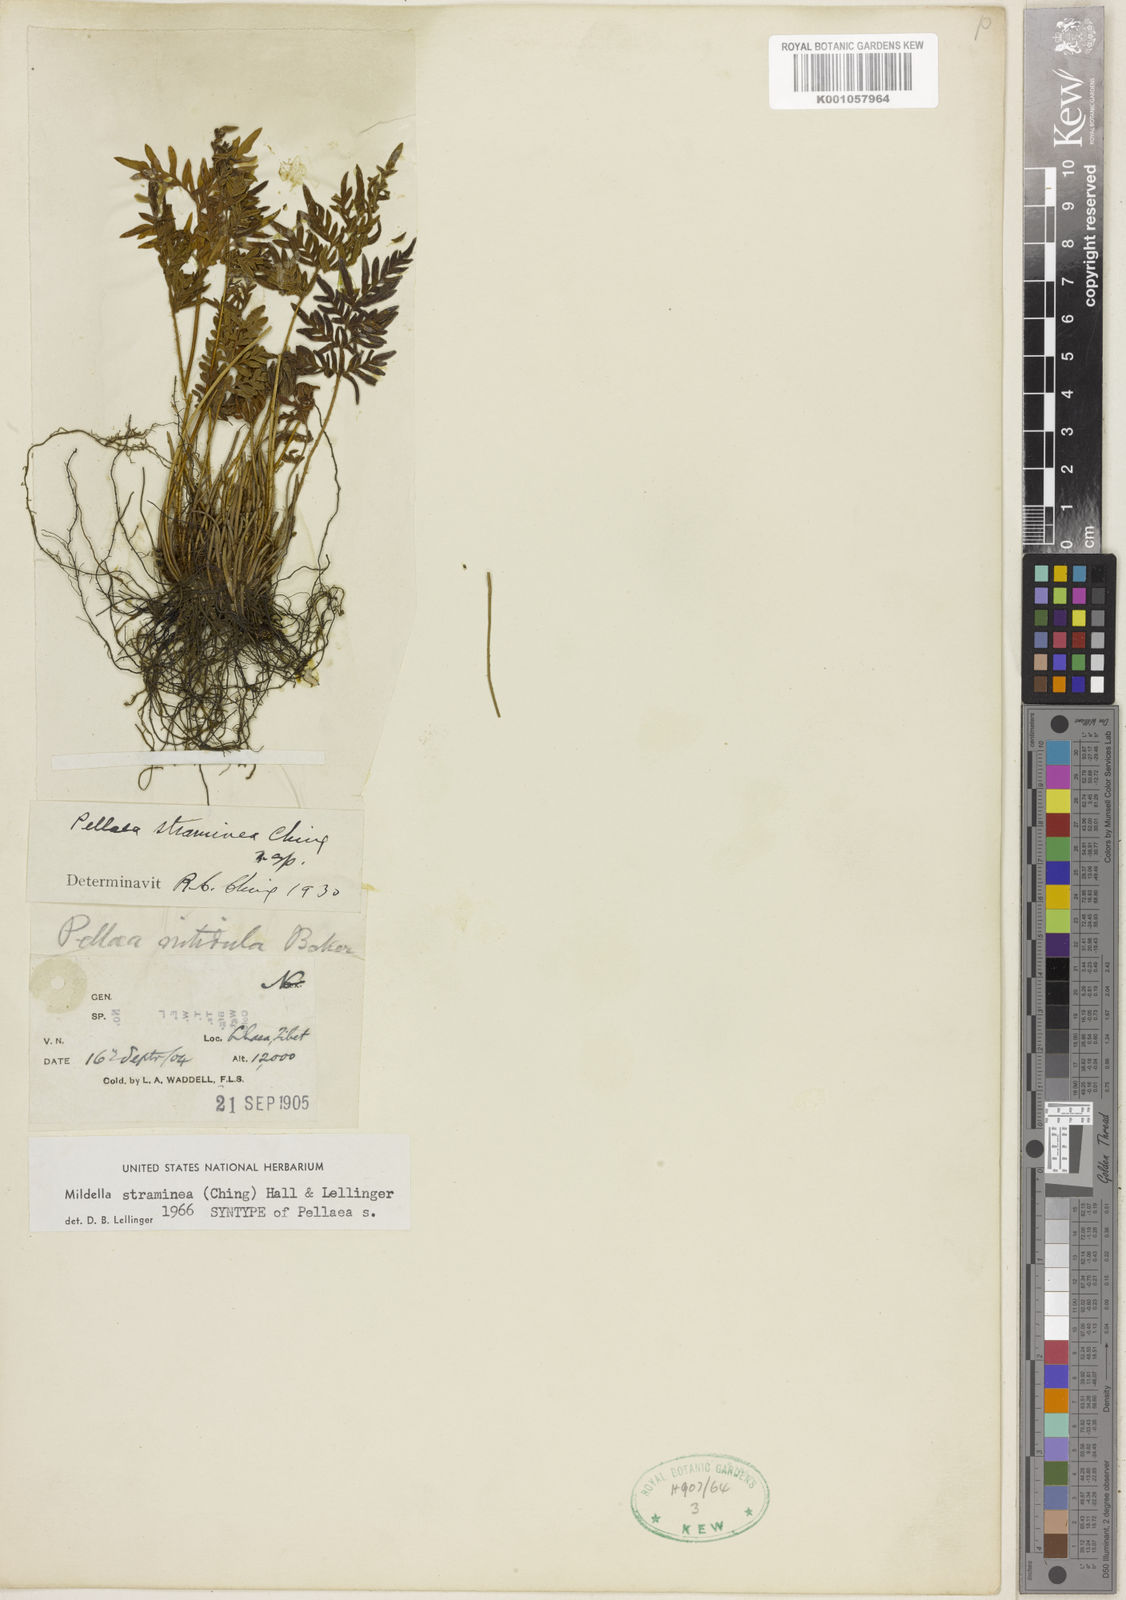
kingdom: Plantae
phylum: Tracheophyta
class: Polypodiopsida
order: Polypodiales
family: Pteridaceae
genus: Oeosporangium
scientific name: Oeosporangium stramineum
